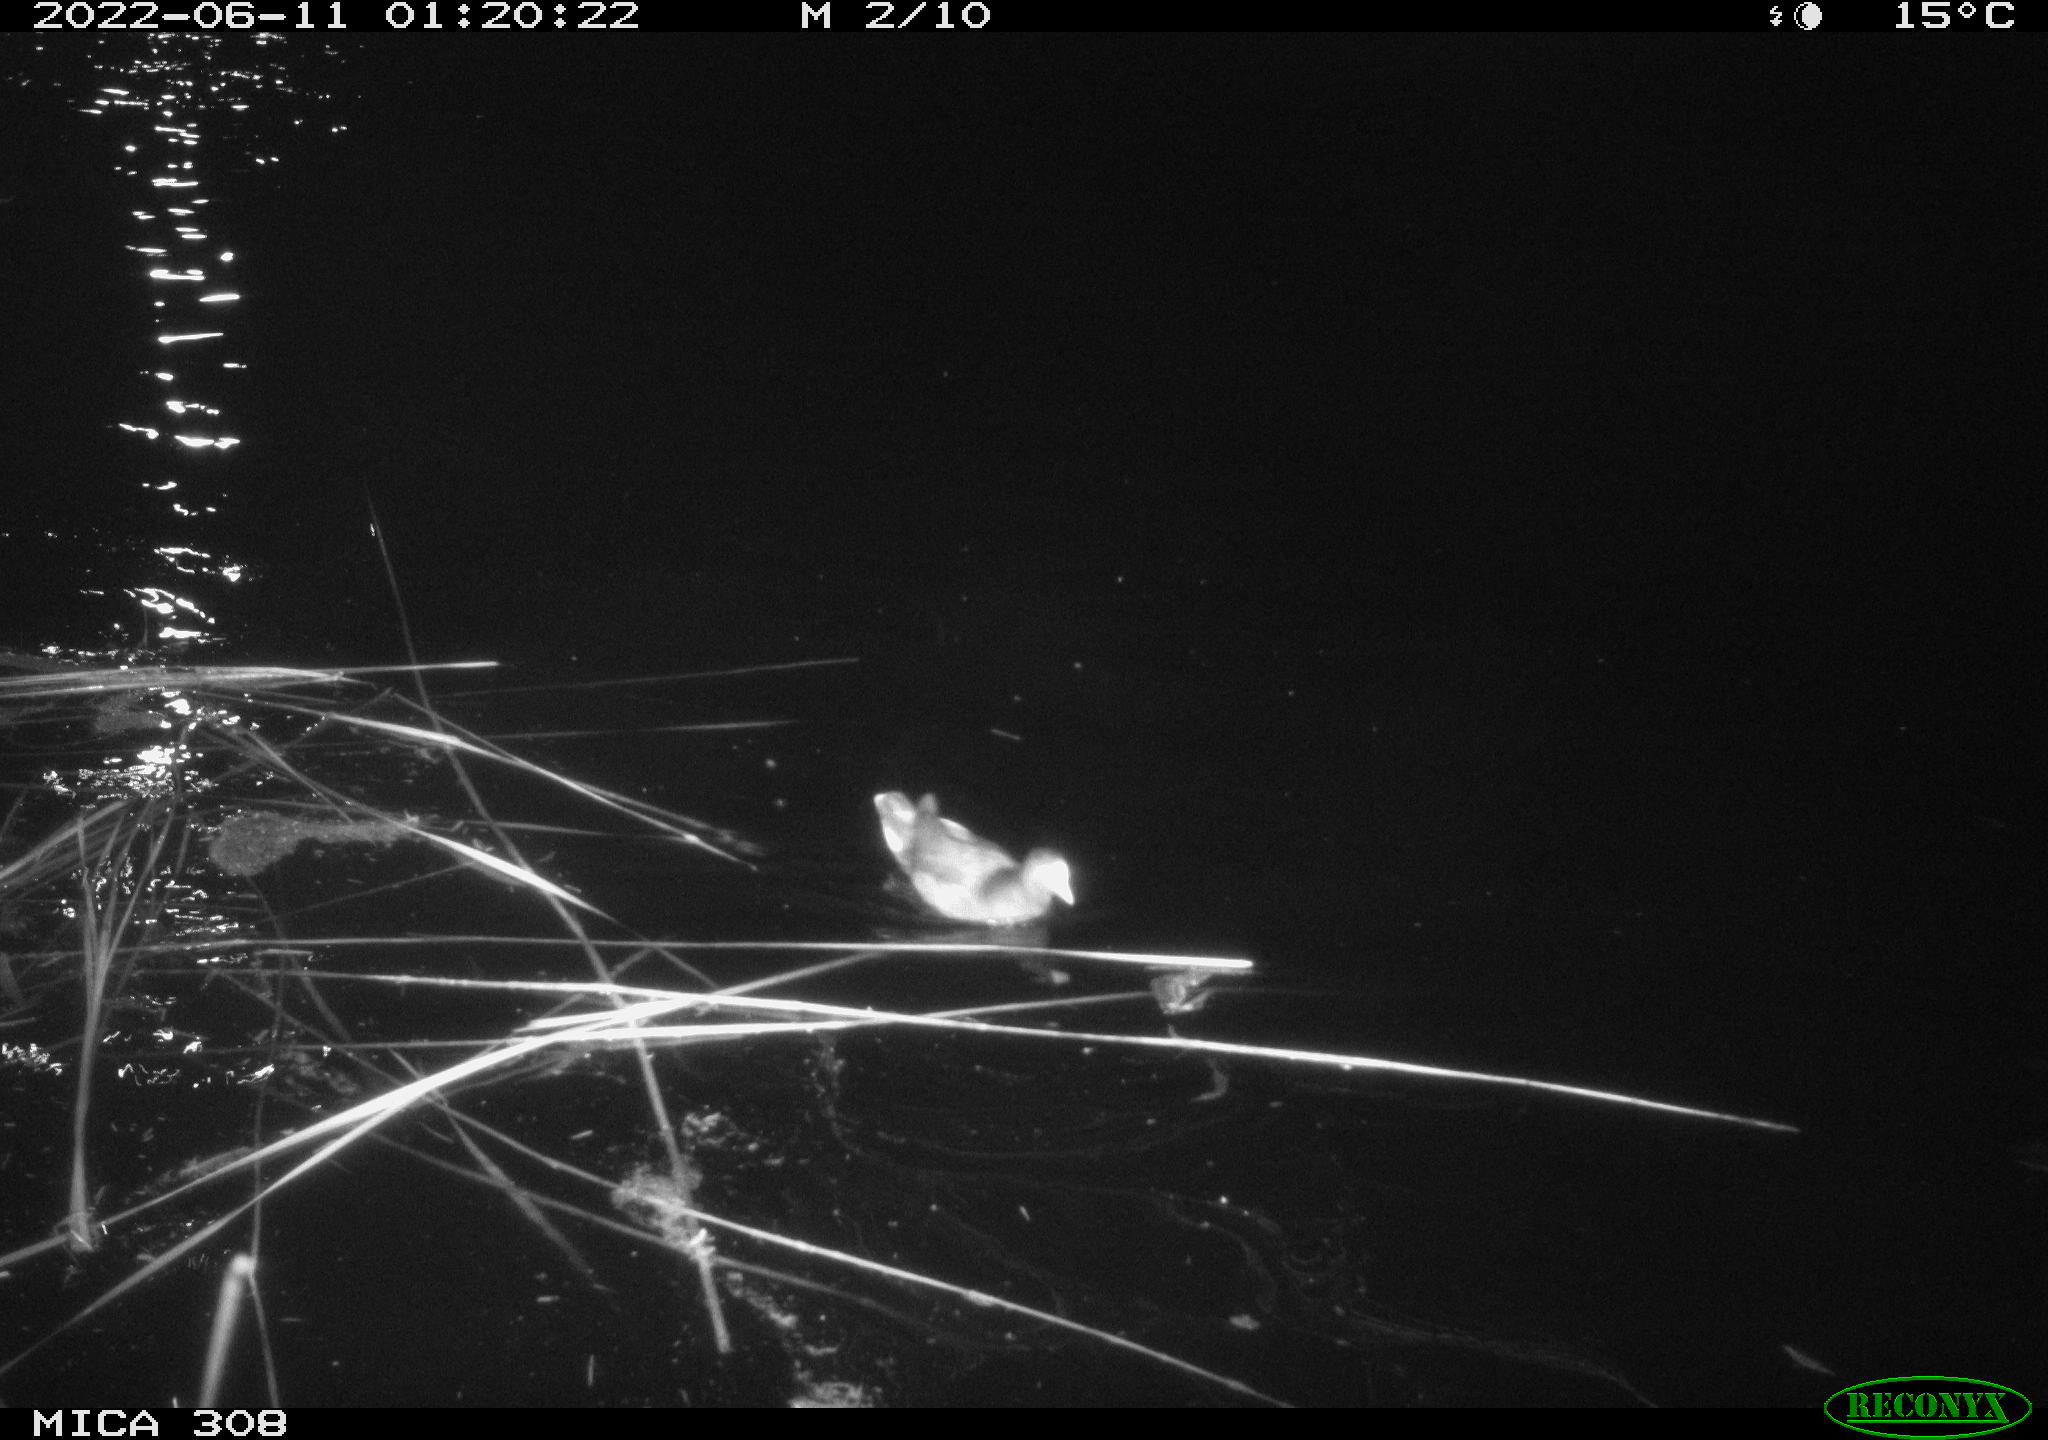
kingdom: Animalia
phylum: Chordata
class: Aves
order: Gruiformes
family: Rallidae
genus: Gallinula
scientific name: Gallinula chloropus
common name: Common moorhen
